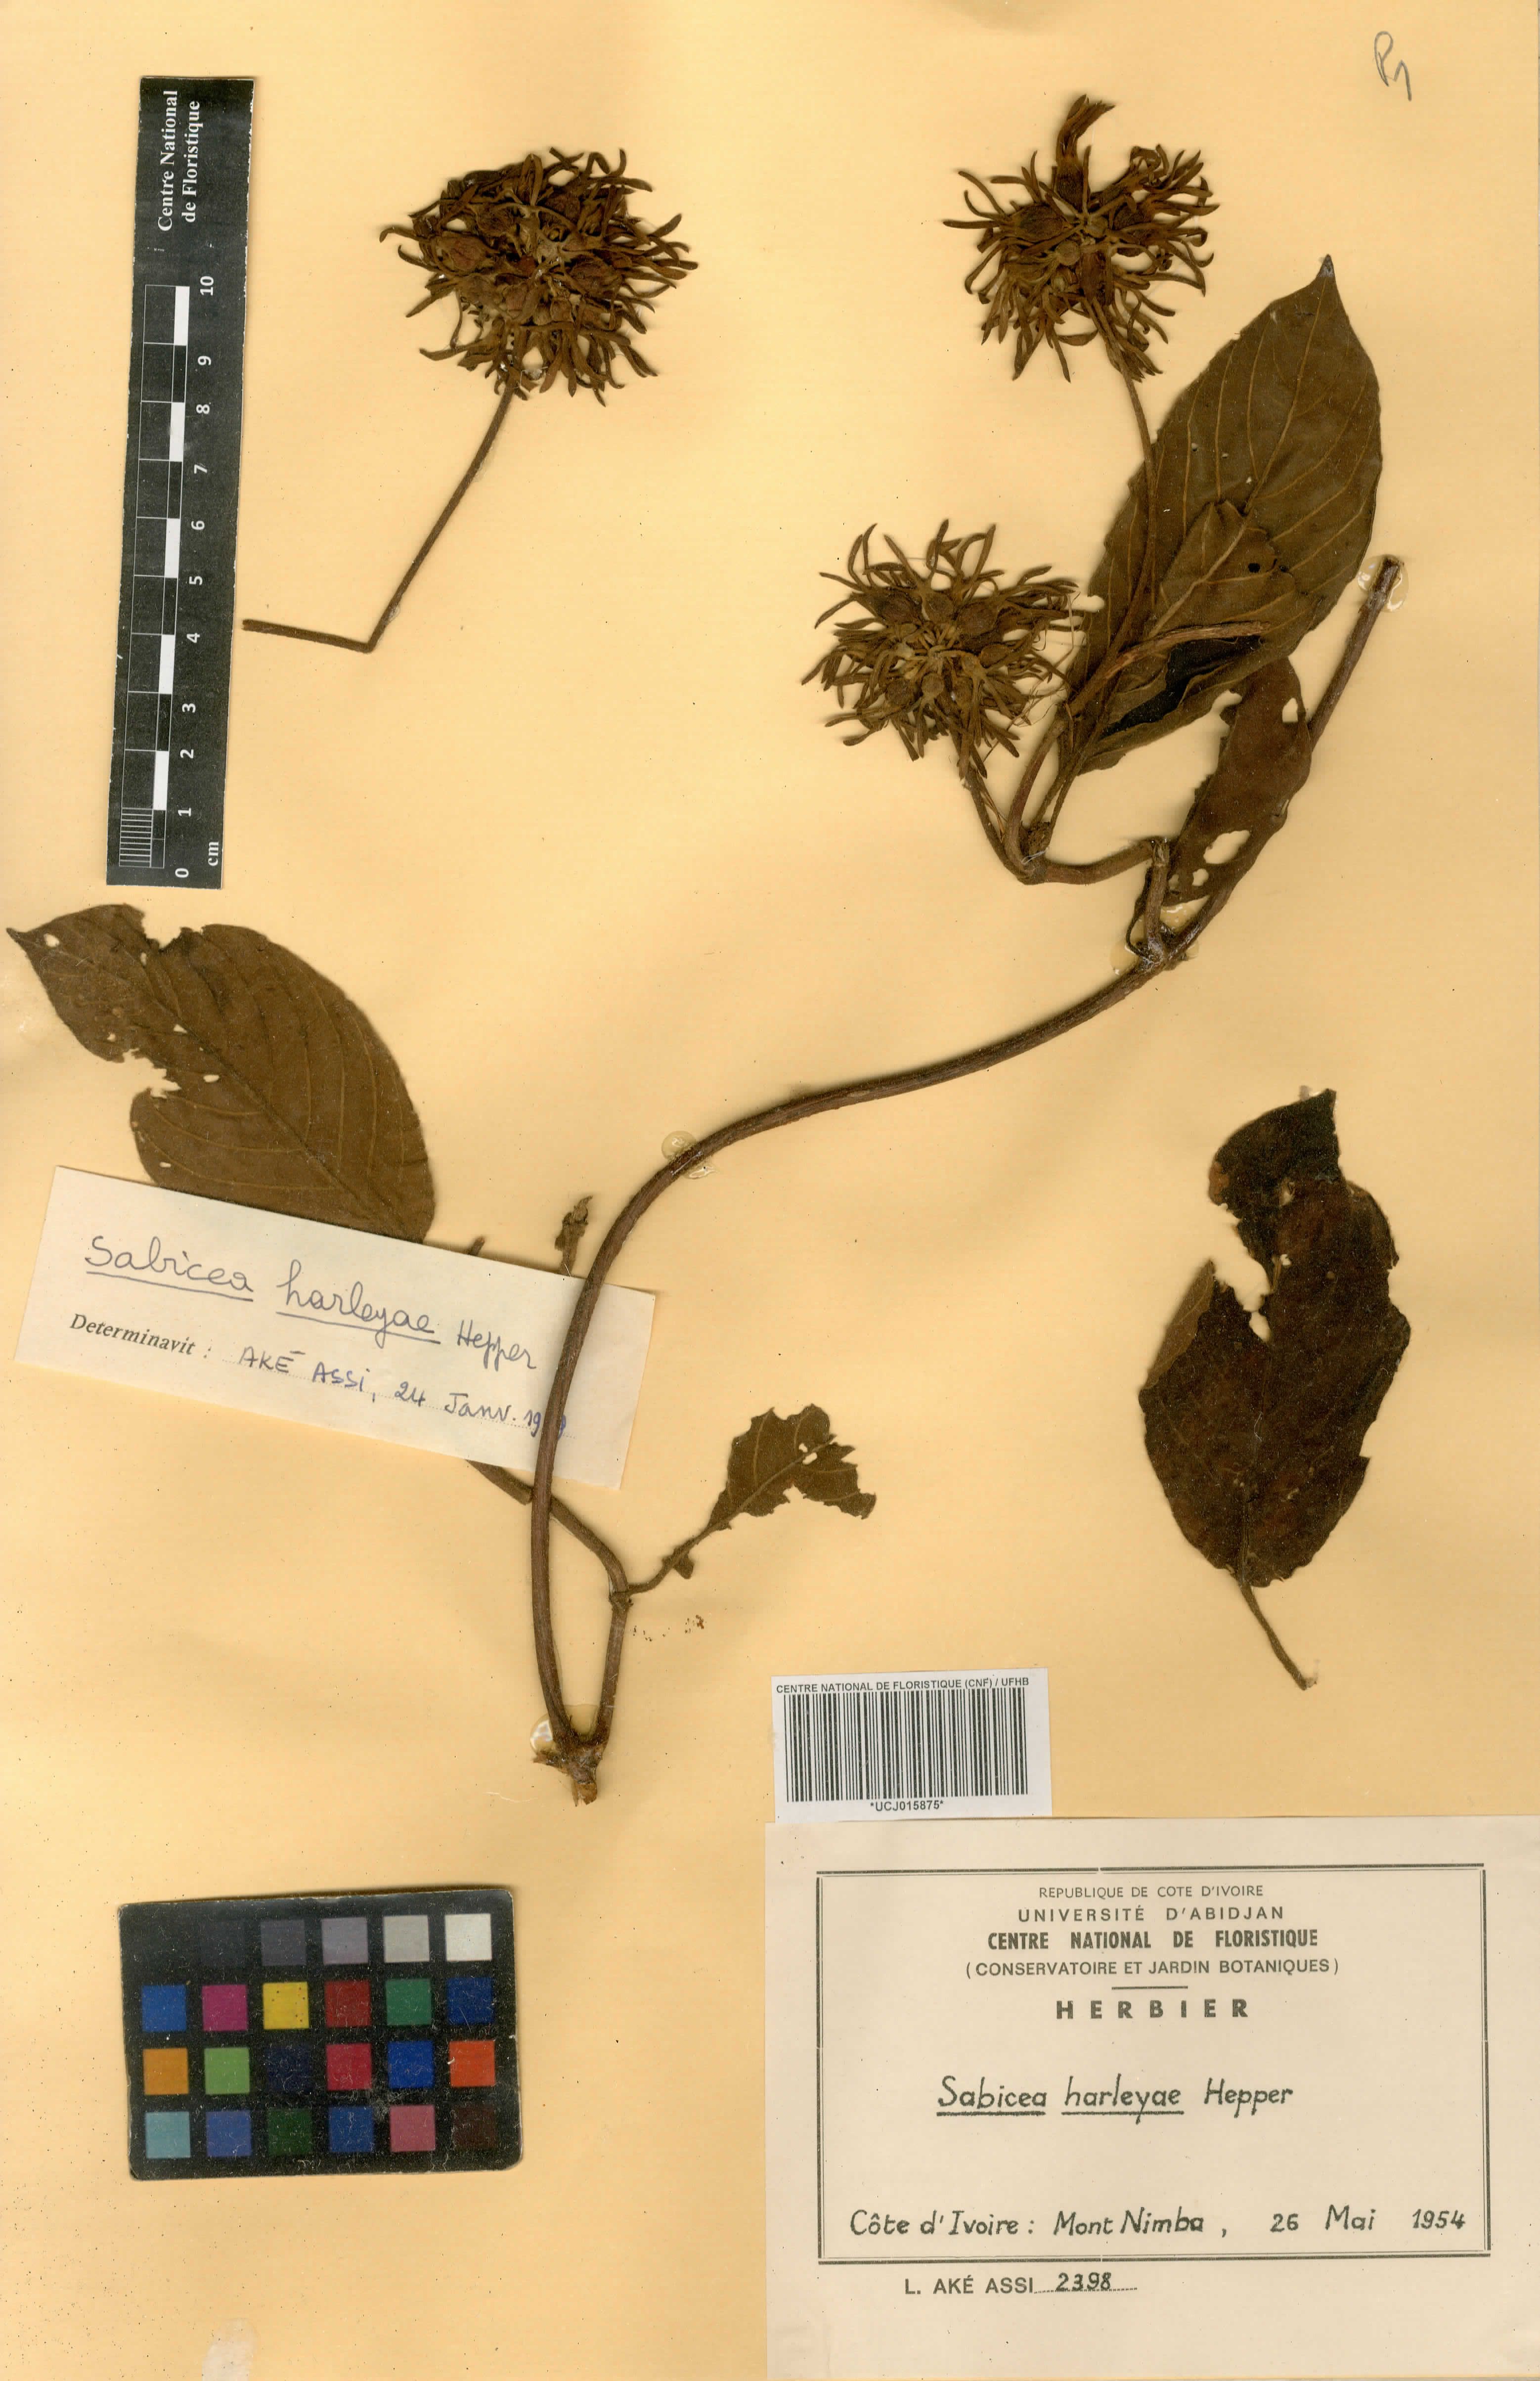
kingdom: Plantae
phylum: Tracheophyta
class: Magnoliopsida
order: Gentianales
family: Rubiaceae
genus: Sabicea
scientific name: Sabicea harleyae
